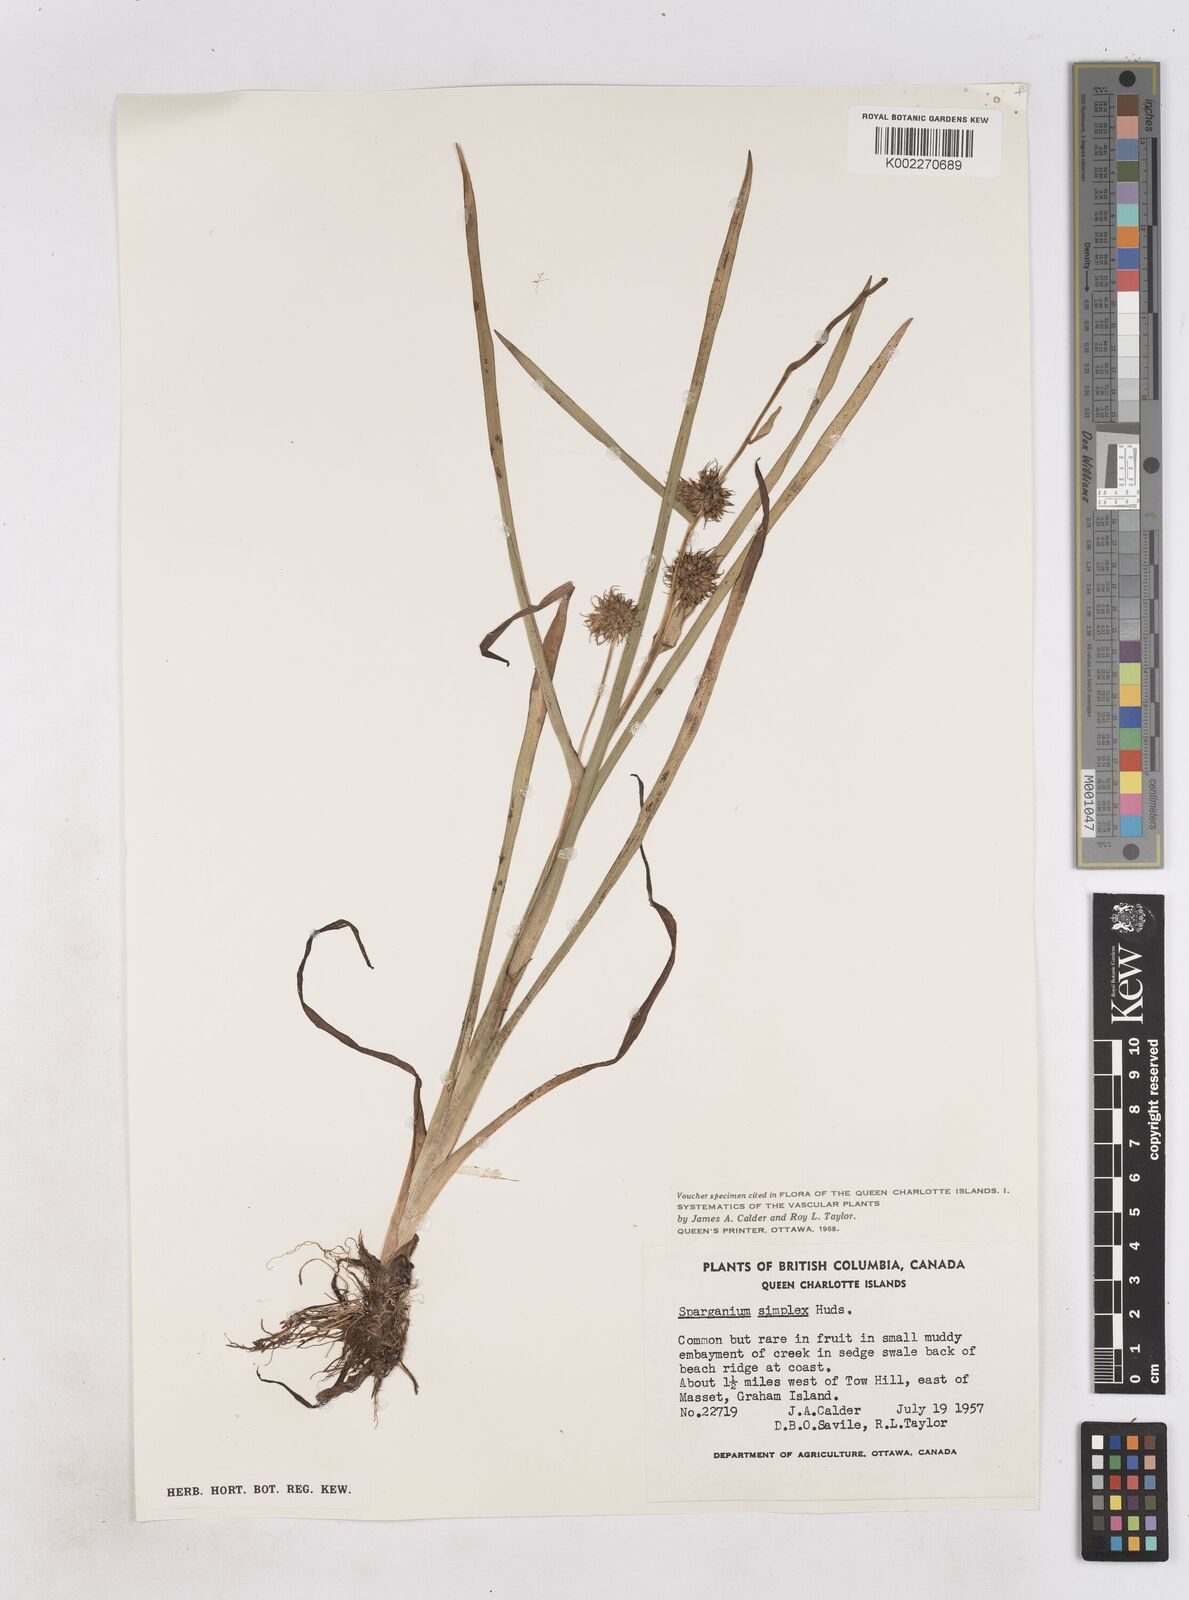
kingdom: Plantae
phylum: Tracheophyta
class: Liliopsida
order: Poales
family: Typhaceae
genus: Sparganium
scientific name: Sparganium emersum
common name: Unbranched bur-reed
